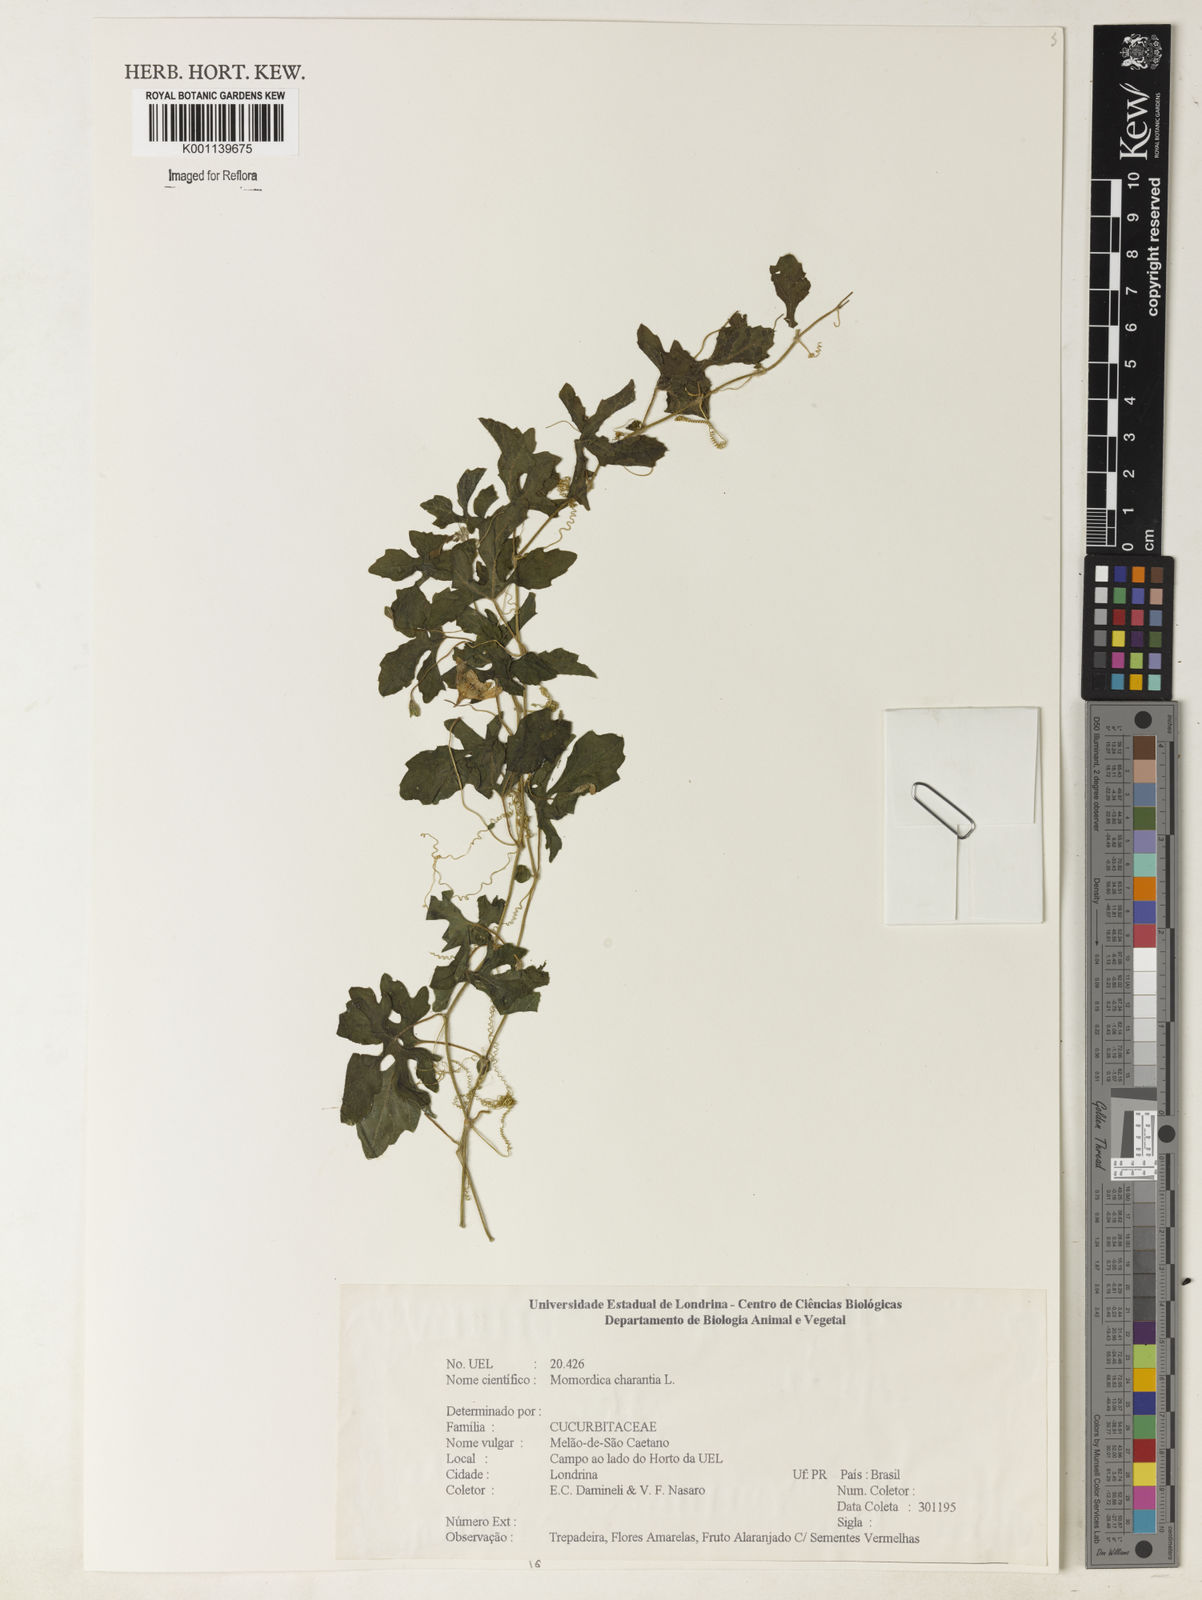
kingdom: Plantae
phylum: Tracheophyta
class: Magnoliopsida
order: Cucurbitales
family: Cucurbitaceae
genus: Momordica
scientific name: Momordica charantia
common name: Balsampear
